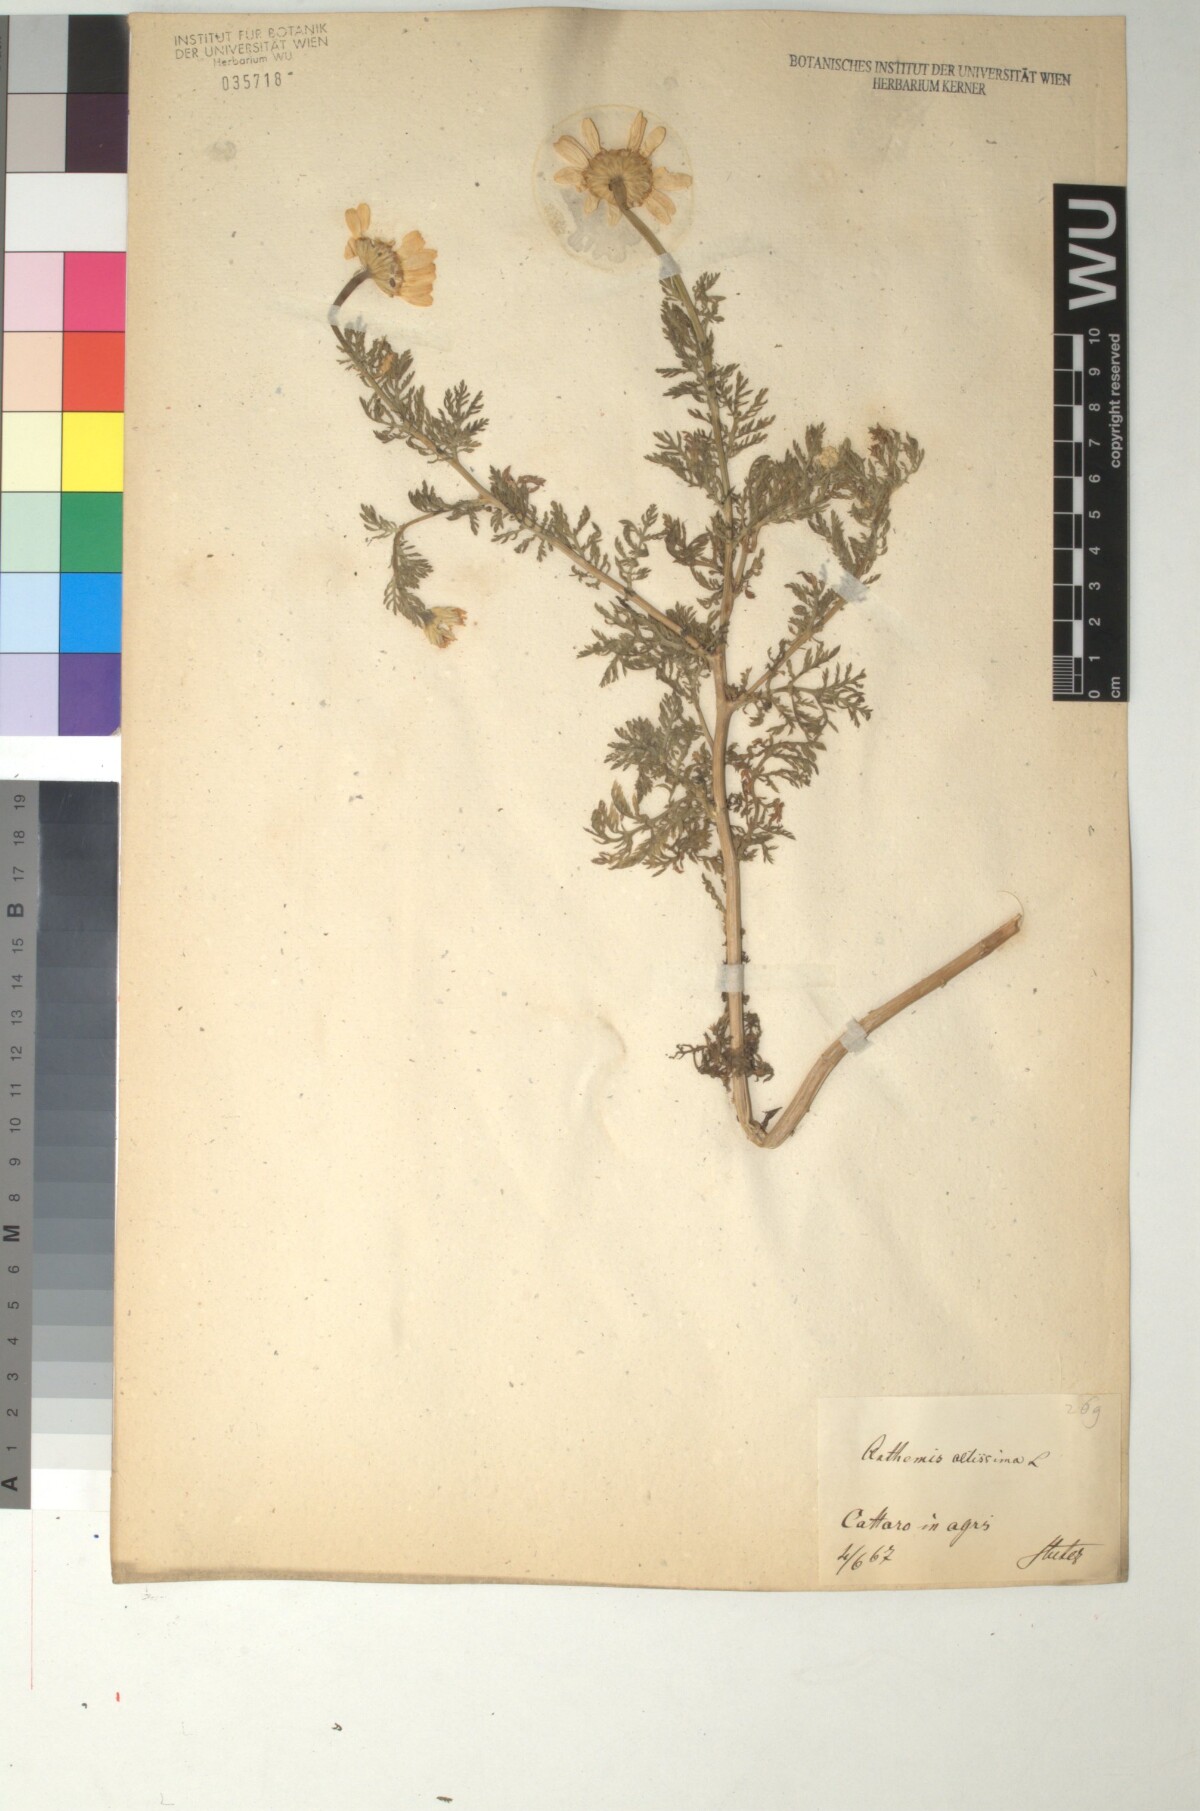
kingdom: Plantae
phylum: Tracheophyta
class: Magnoliopsida
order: Asterales
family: Asteraceae
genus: Cota
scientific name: Cota altissima
